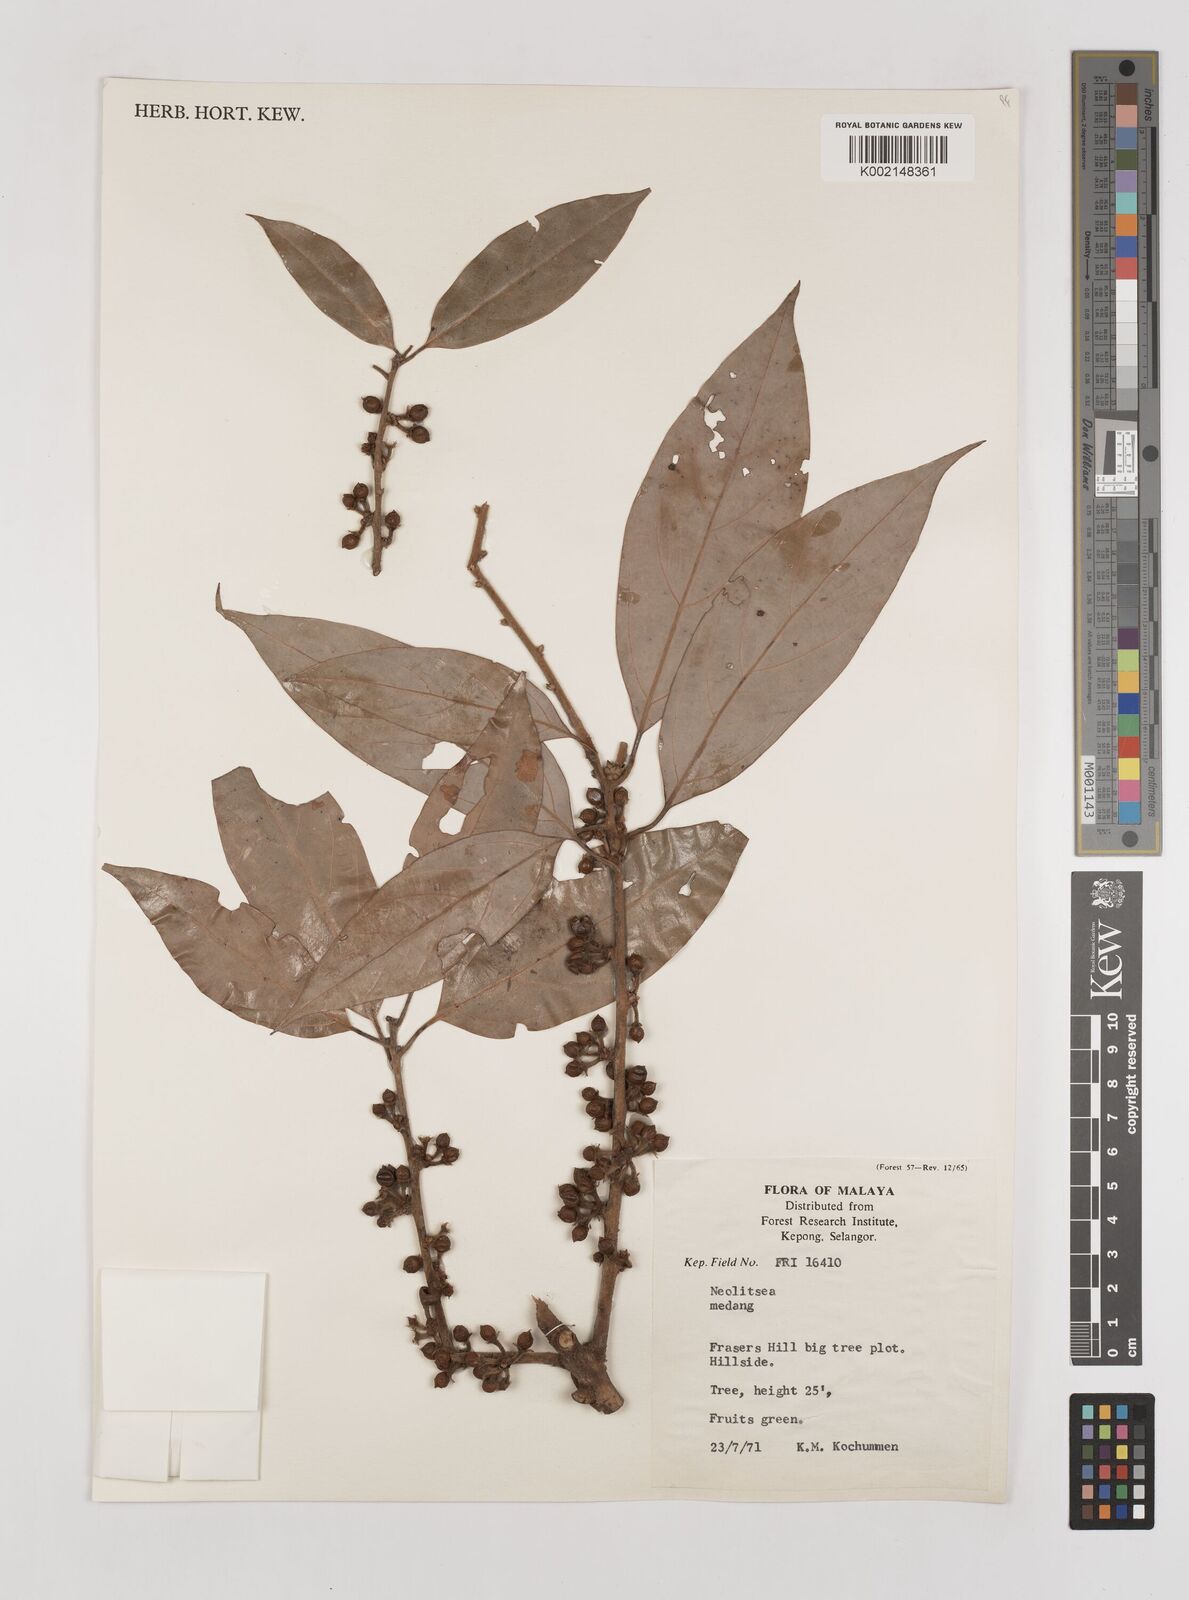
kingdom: Plantae
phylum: Tracheophyta
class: Magnoliopsida
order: Laurales
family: Lauraceae
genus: Neolitsea
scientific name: Neolitsea
